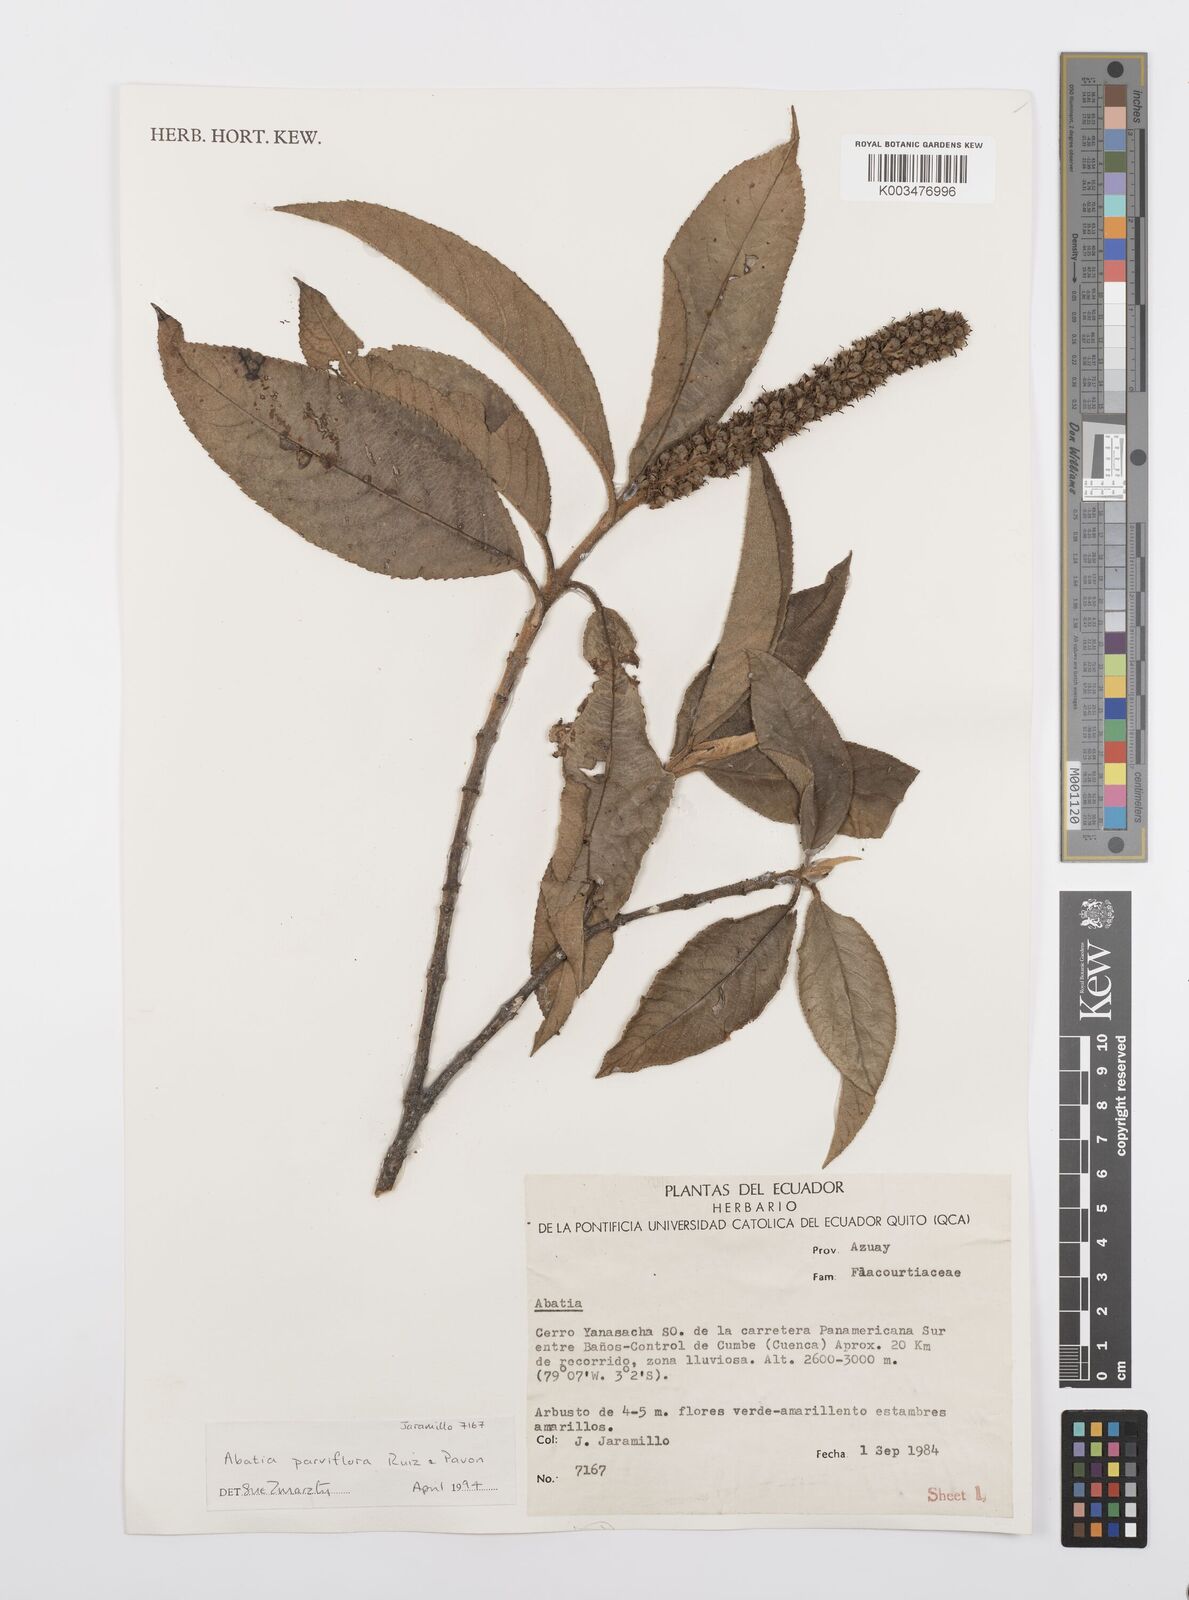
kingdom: Plantae
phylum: Tracheophyta
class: Magnoliopsida
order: Malpighiales
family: Salicaceae
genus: Abatia
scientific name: Abatia parviflora
